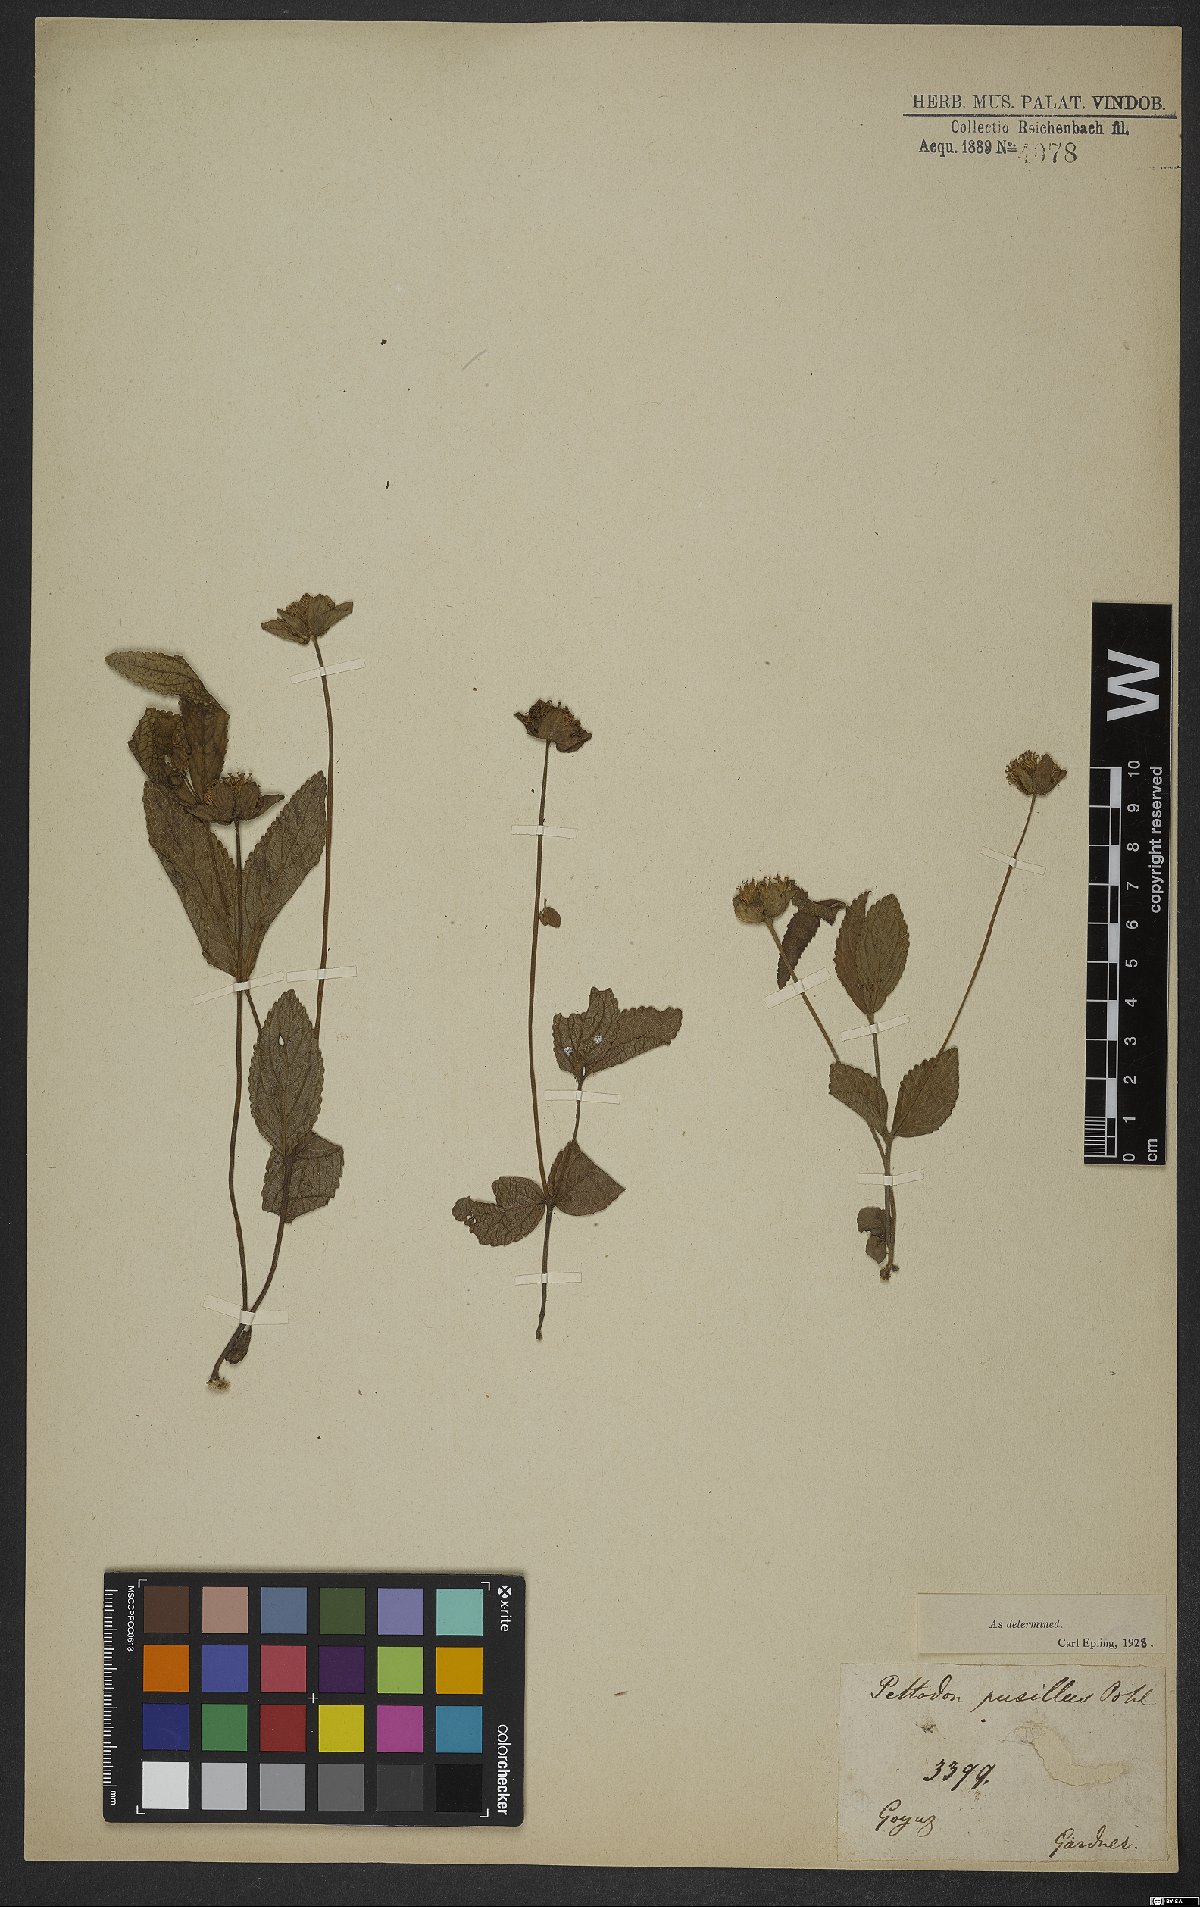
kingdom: Plantae
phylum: Tracheophyta
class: Magnoliopsida
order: Lamiales
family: Lamiaceae
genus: Hyptis
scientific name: Hyptis pusilla
